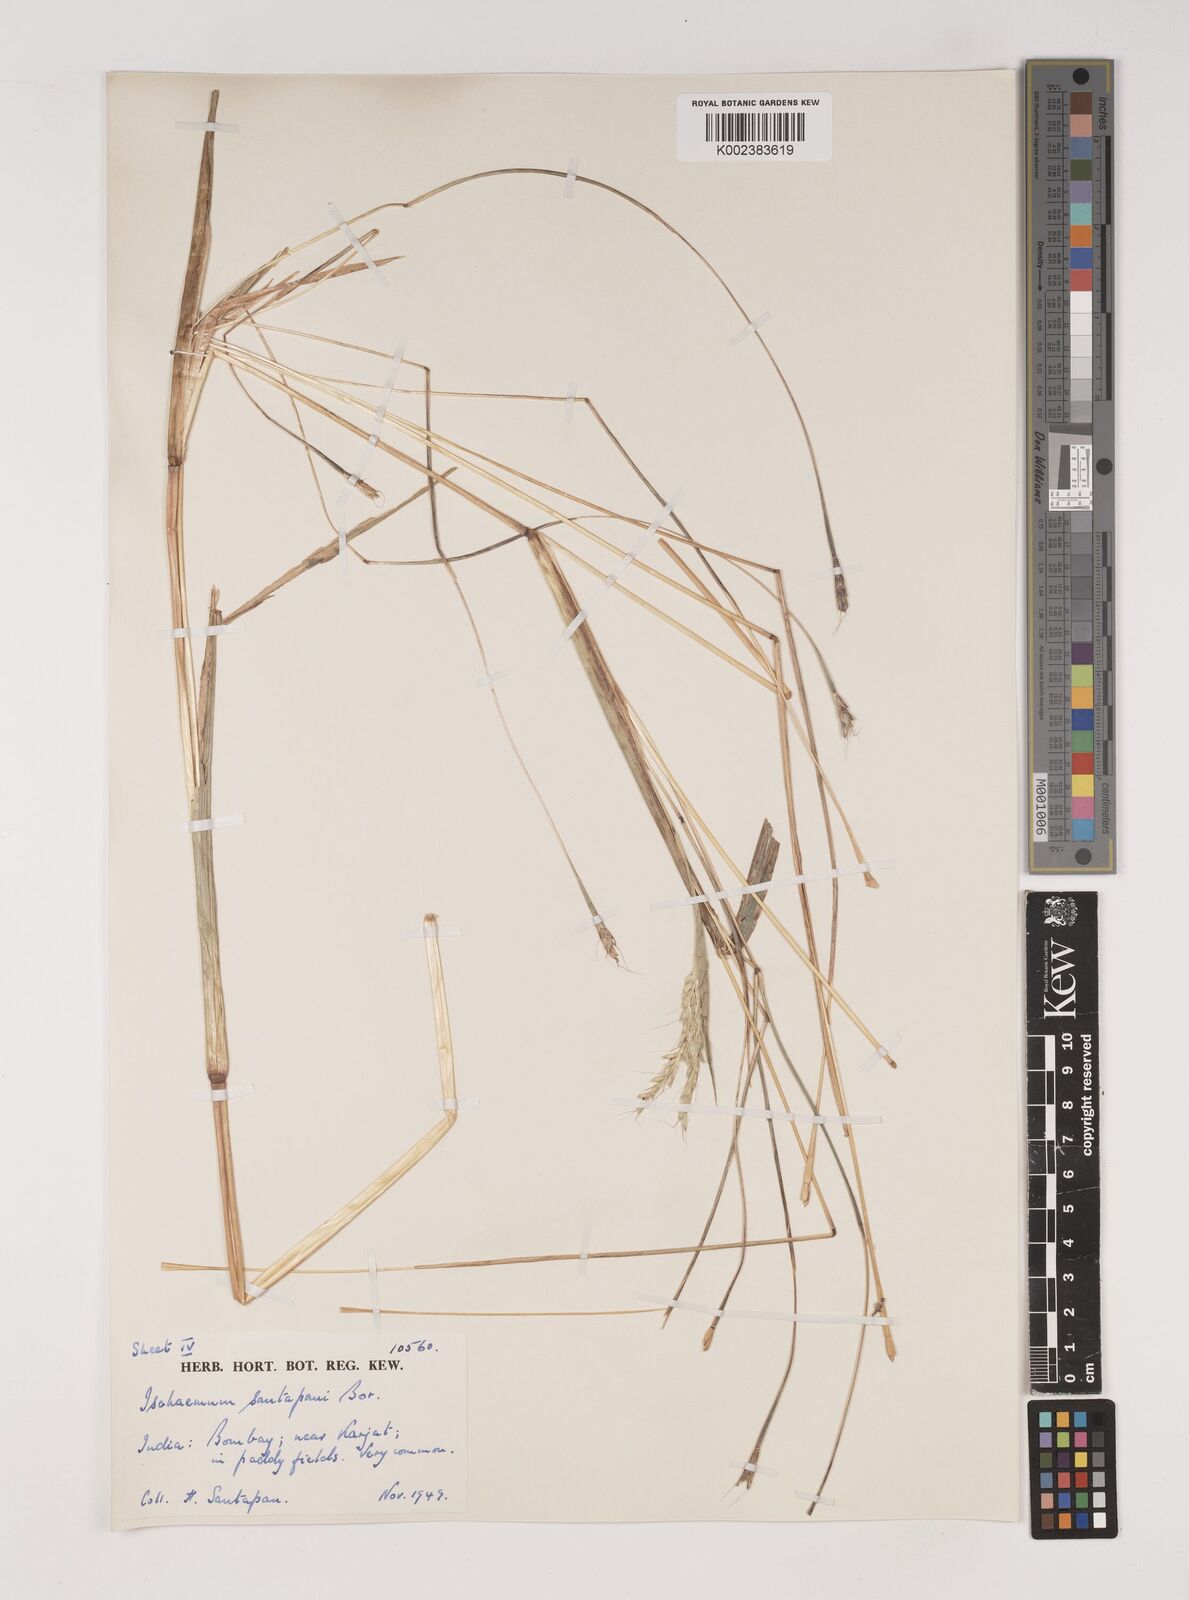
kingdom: Plantae
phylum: Tracheophyta
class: Liliopsida
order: Poales
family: Poaceae
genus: Ischaemum
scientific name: Ischaemum santapaui
